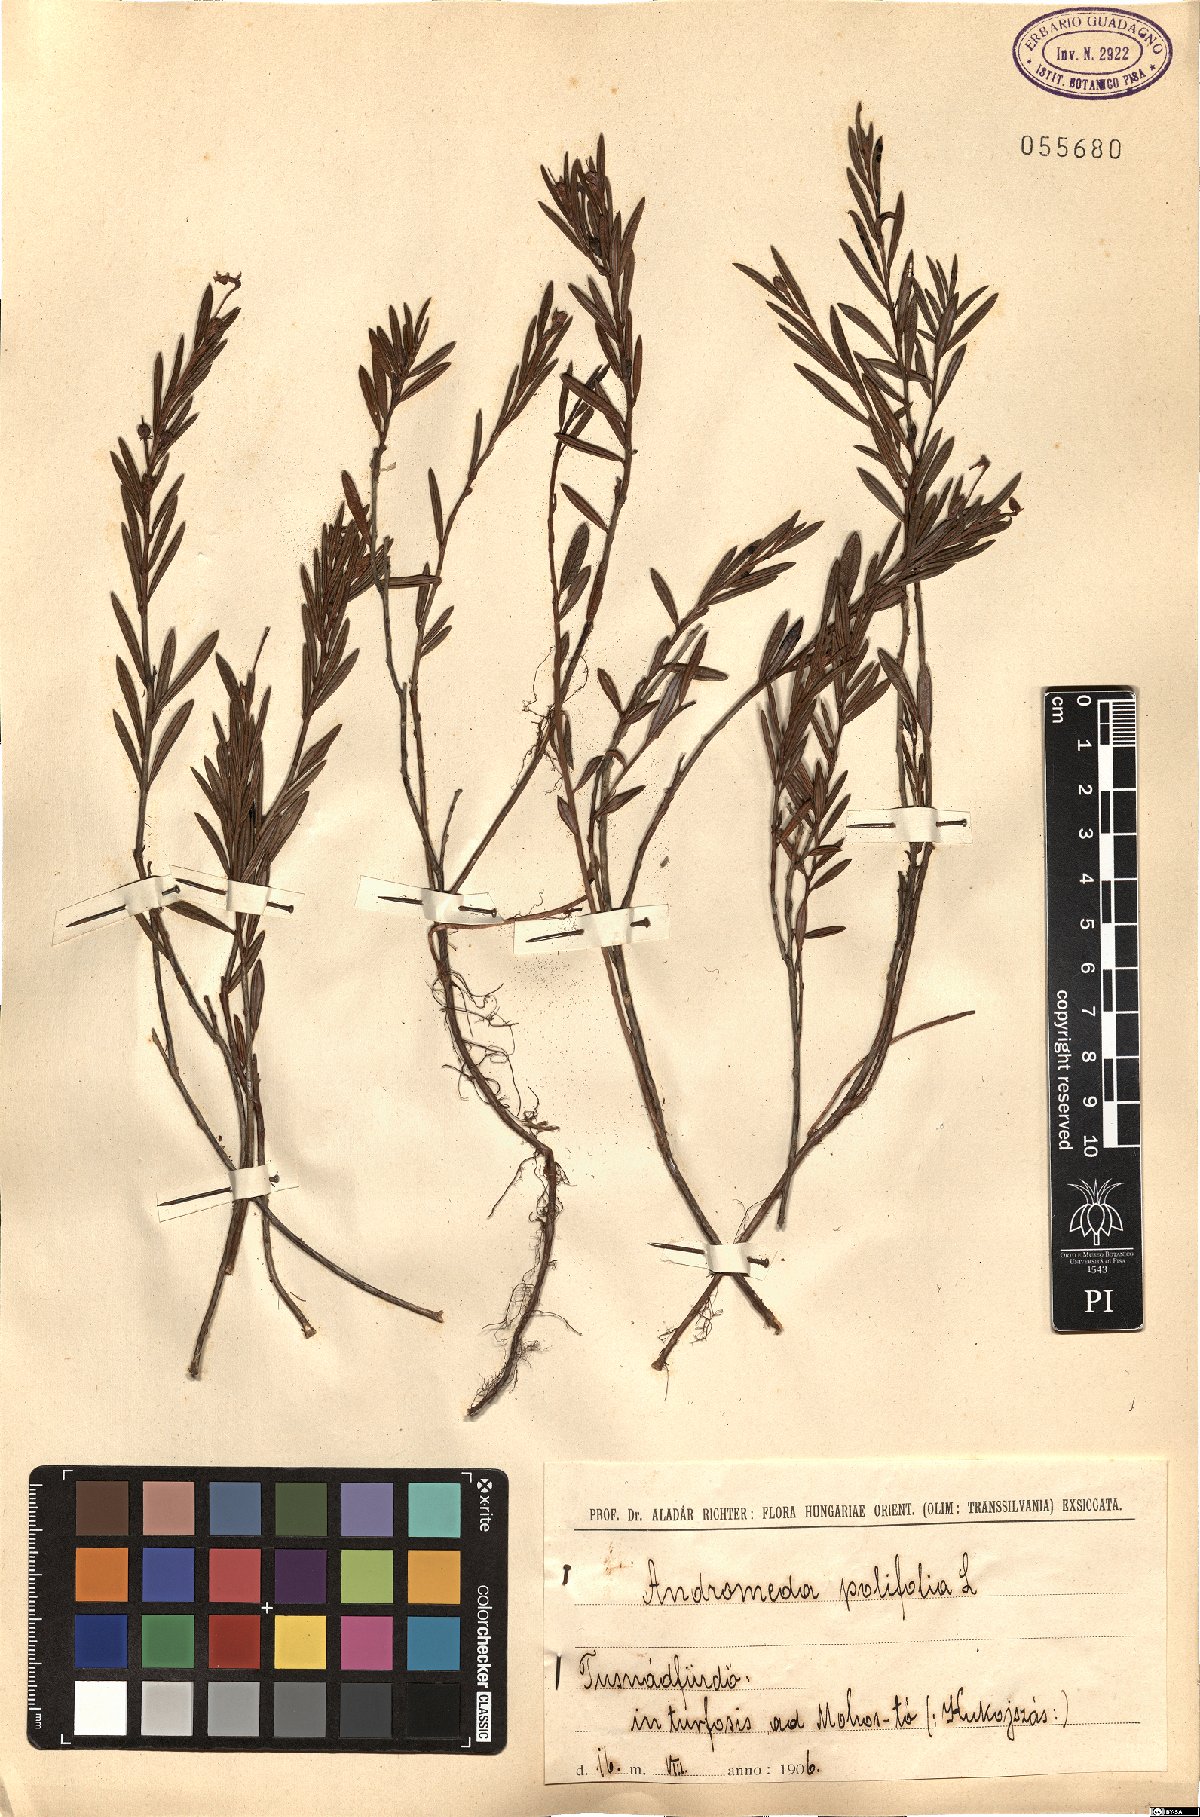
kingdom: Plantae
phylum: Tracheophyta
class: Magnoliopsida
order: Ericales
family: Ericaceae
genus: Andromeda
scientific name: Andromeda polifolia
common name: Bog-rosemary
